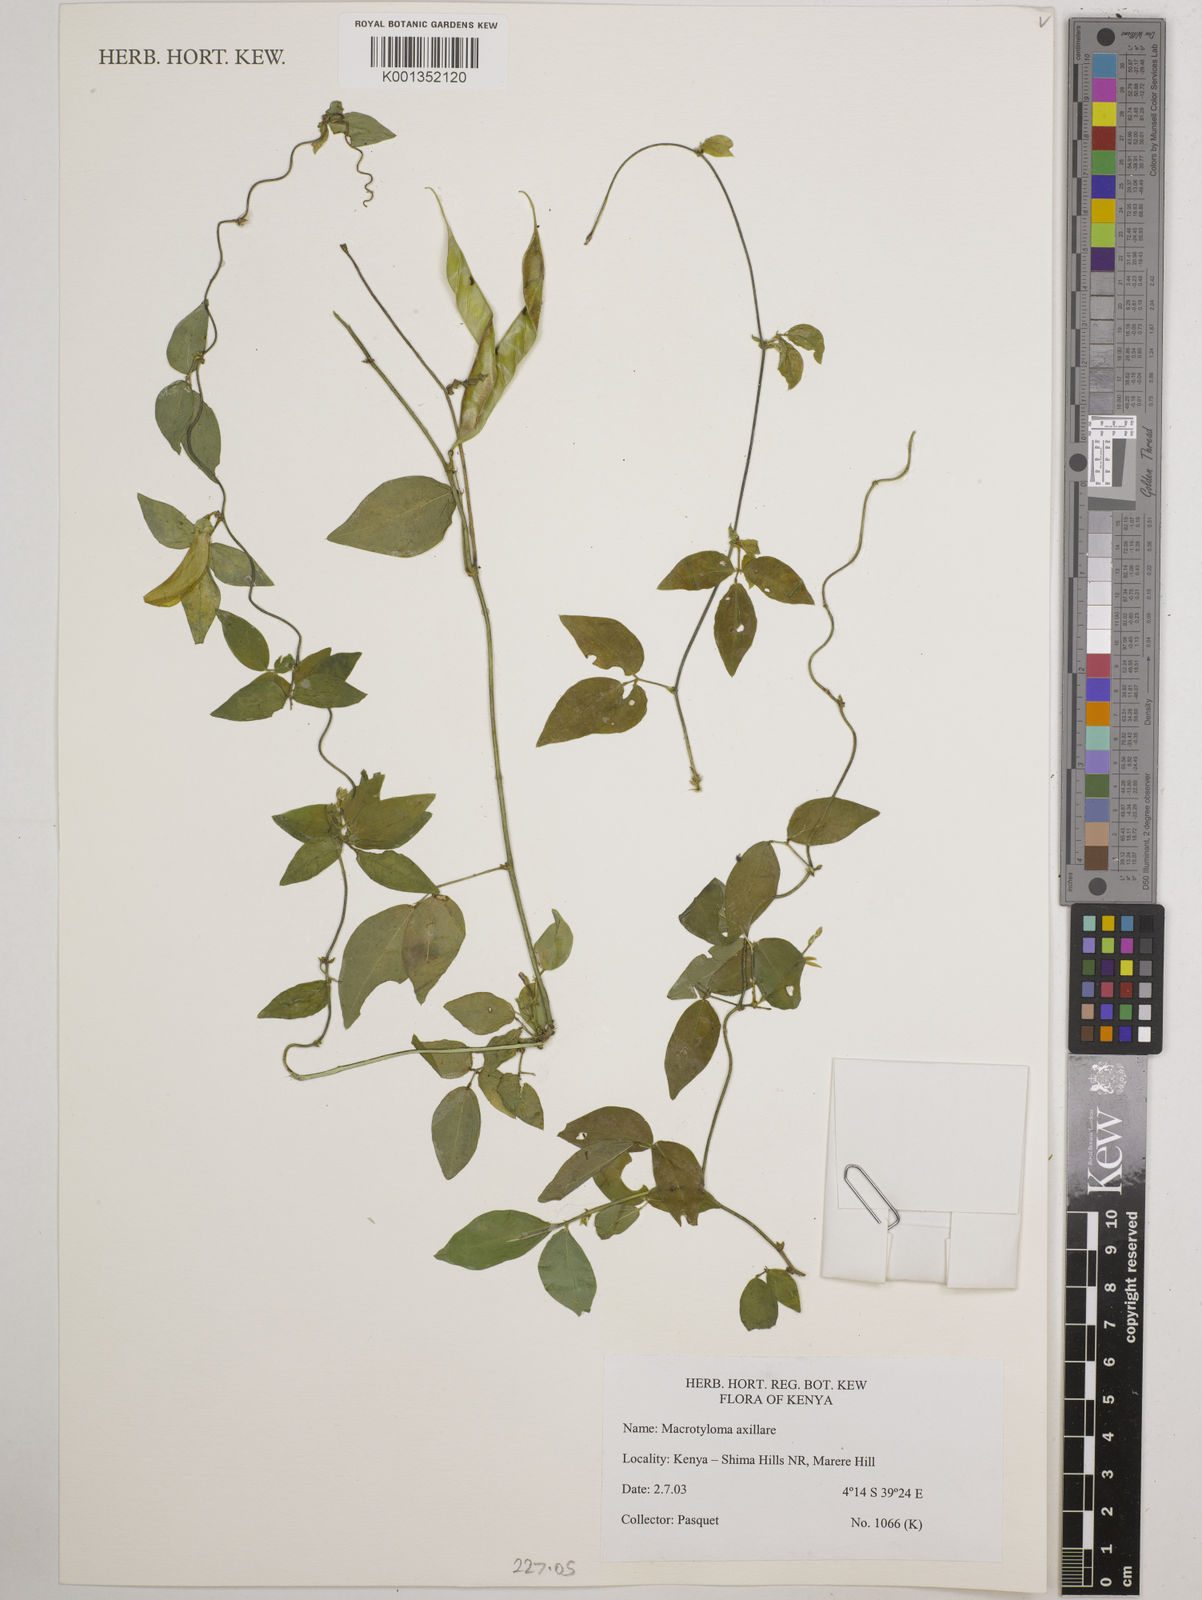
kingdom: Plantae
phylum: Tracheophyta
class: Magnoliopsida
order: Fabales
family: Fabaceae
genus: Macrotyloma
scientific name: Macrotyloma axillare
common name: Perennial horsegram
